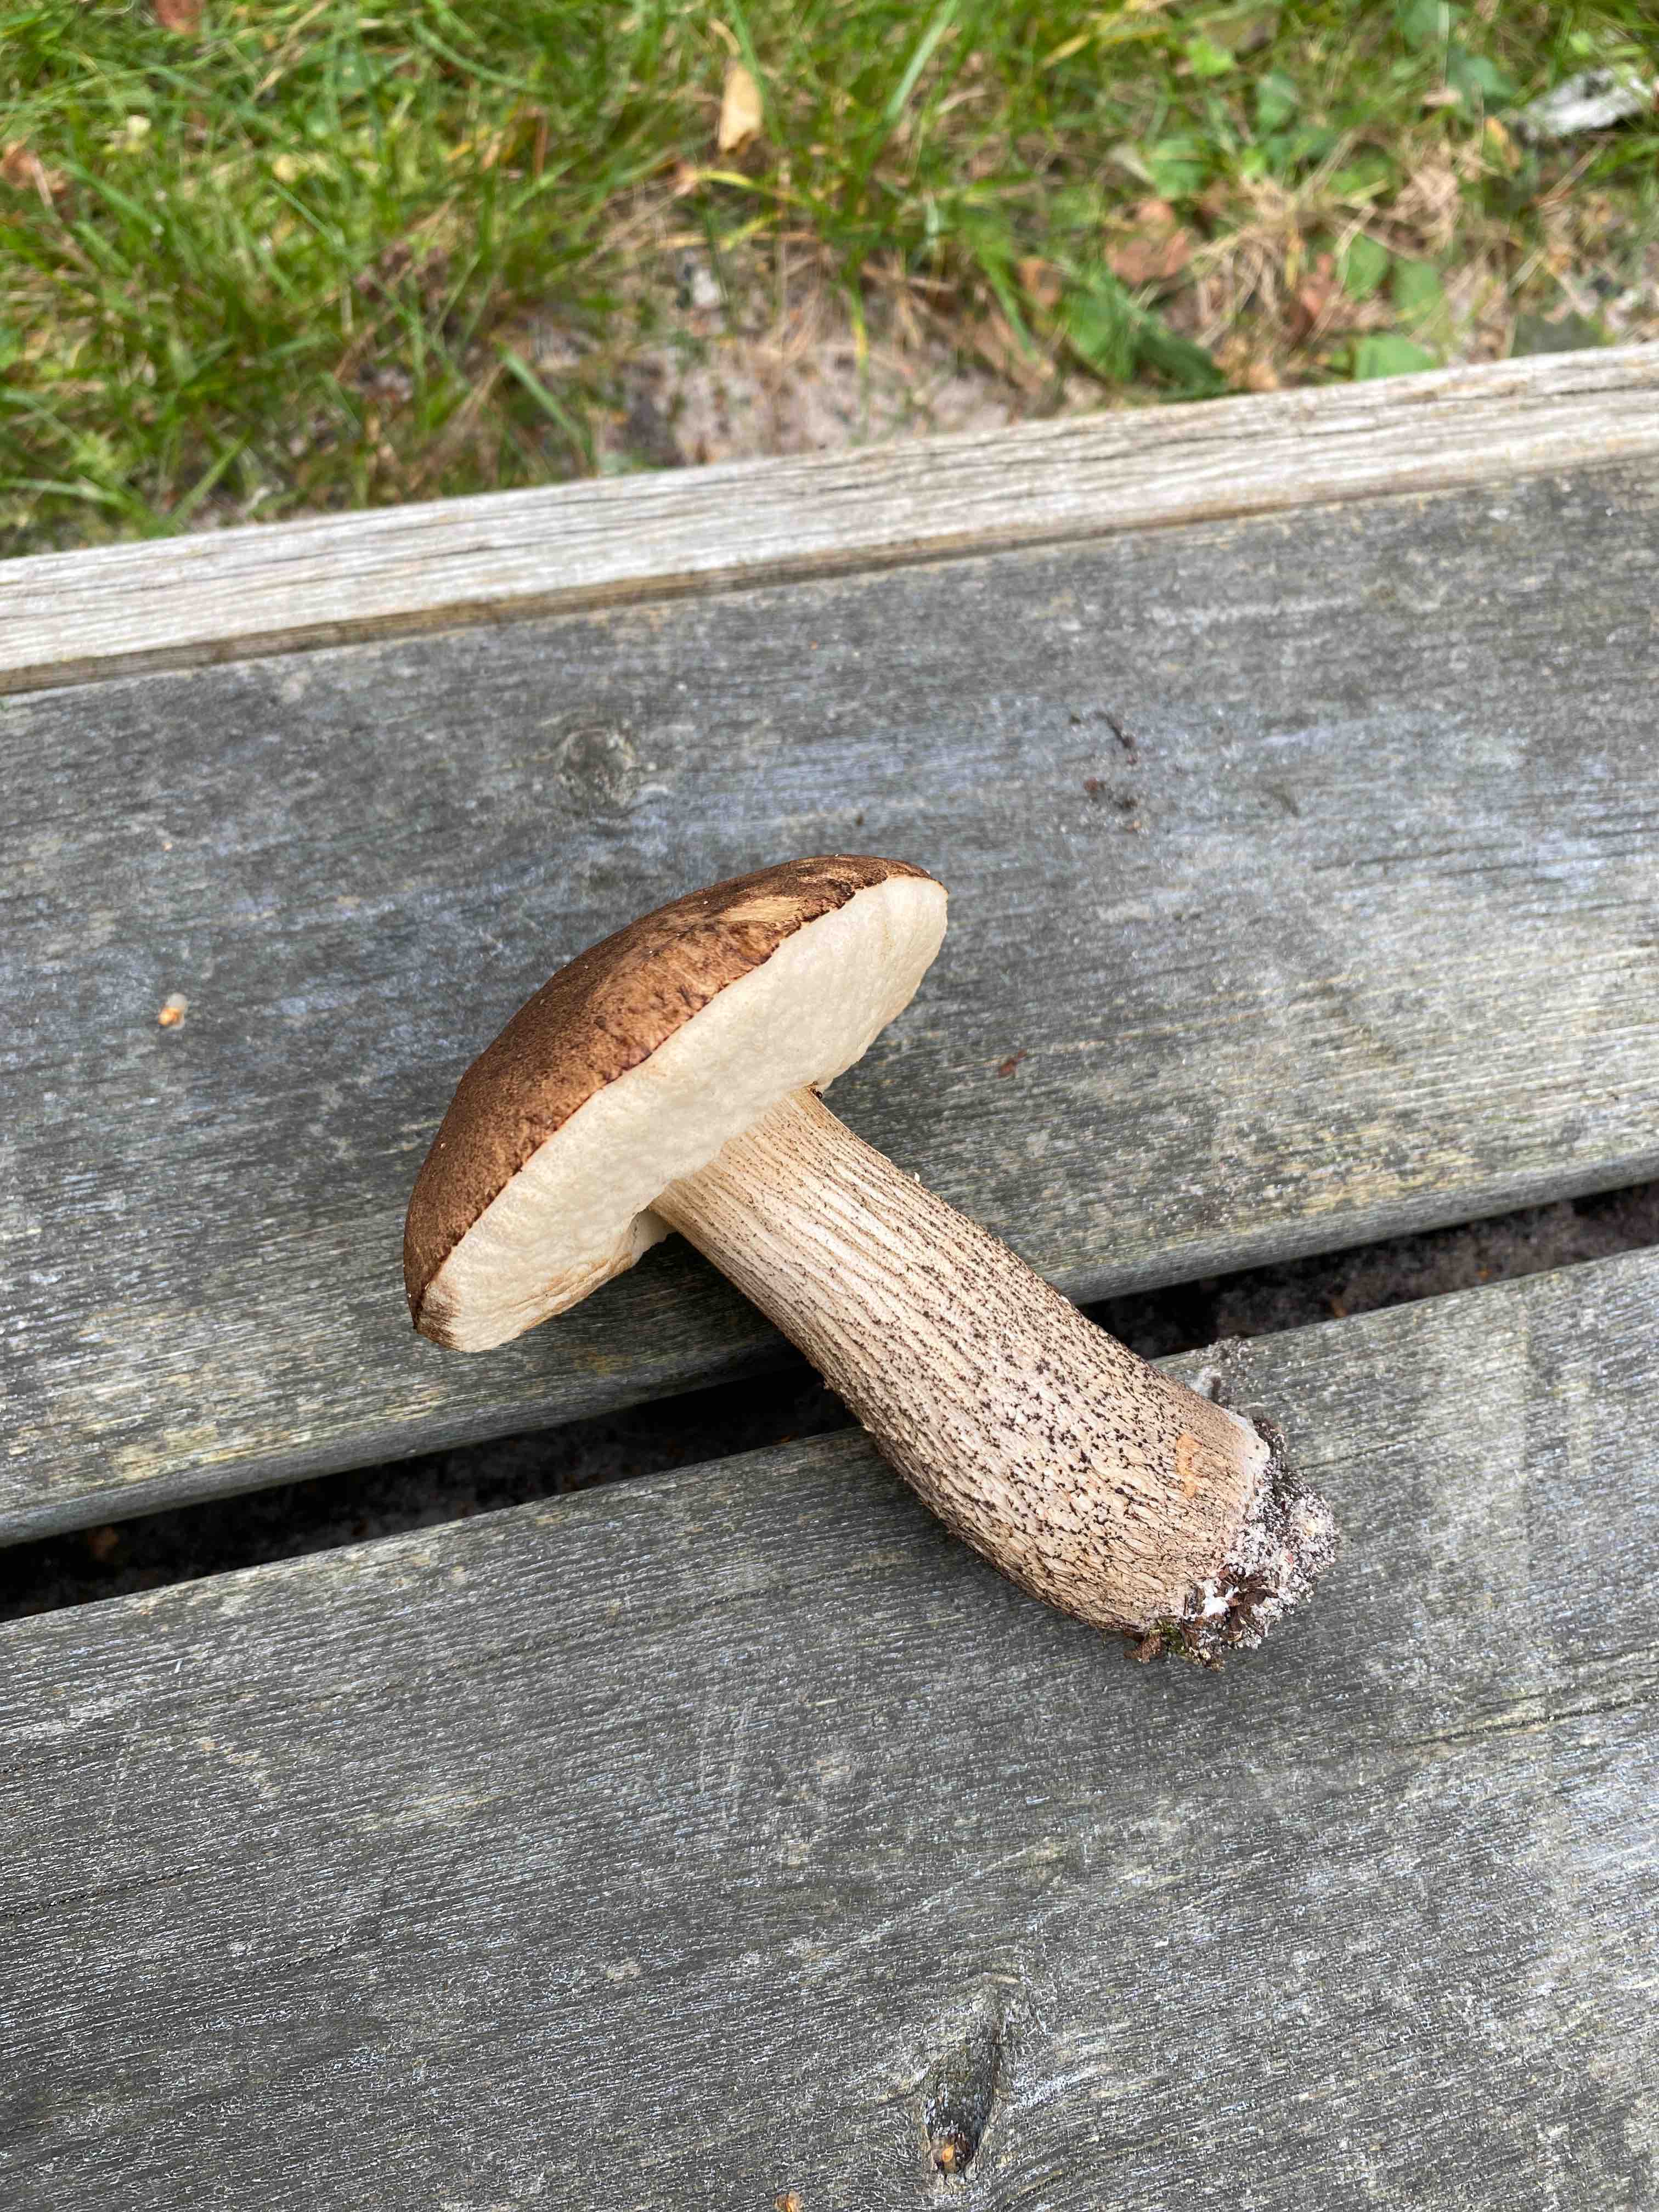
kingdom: Fungi
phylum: Basidiomycota
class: Agaricomycetes
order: Boletales
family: Boletaceae
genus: Leccinum
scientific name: Leccinum scabrum
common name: brun skælrørhat
